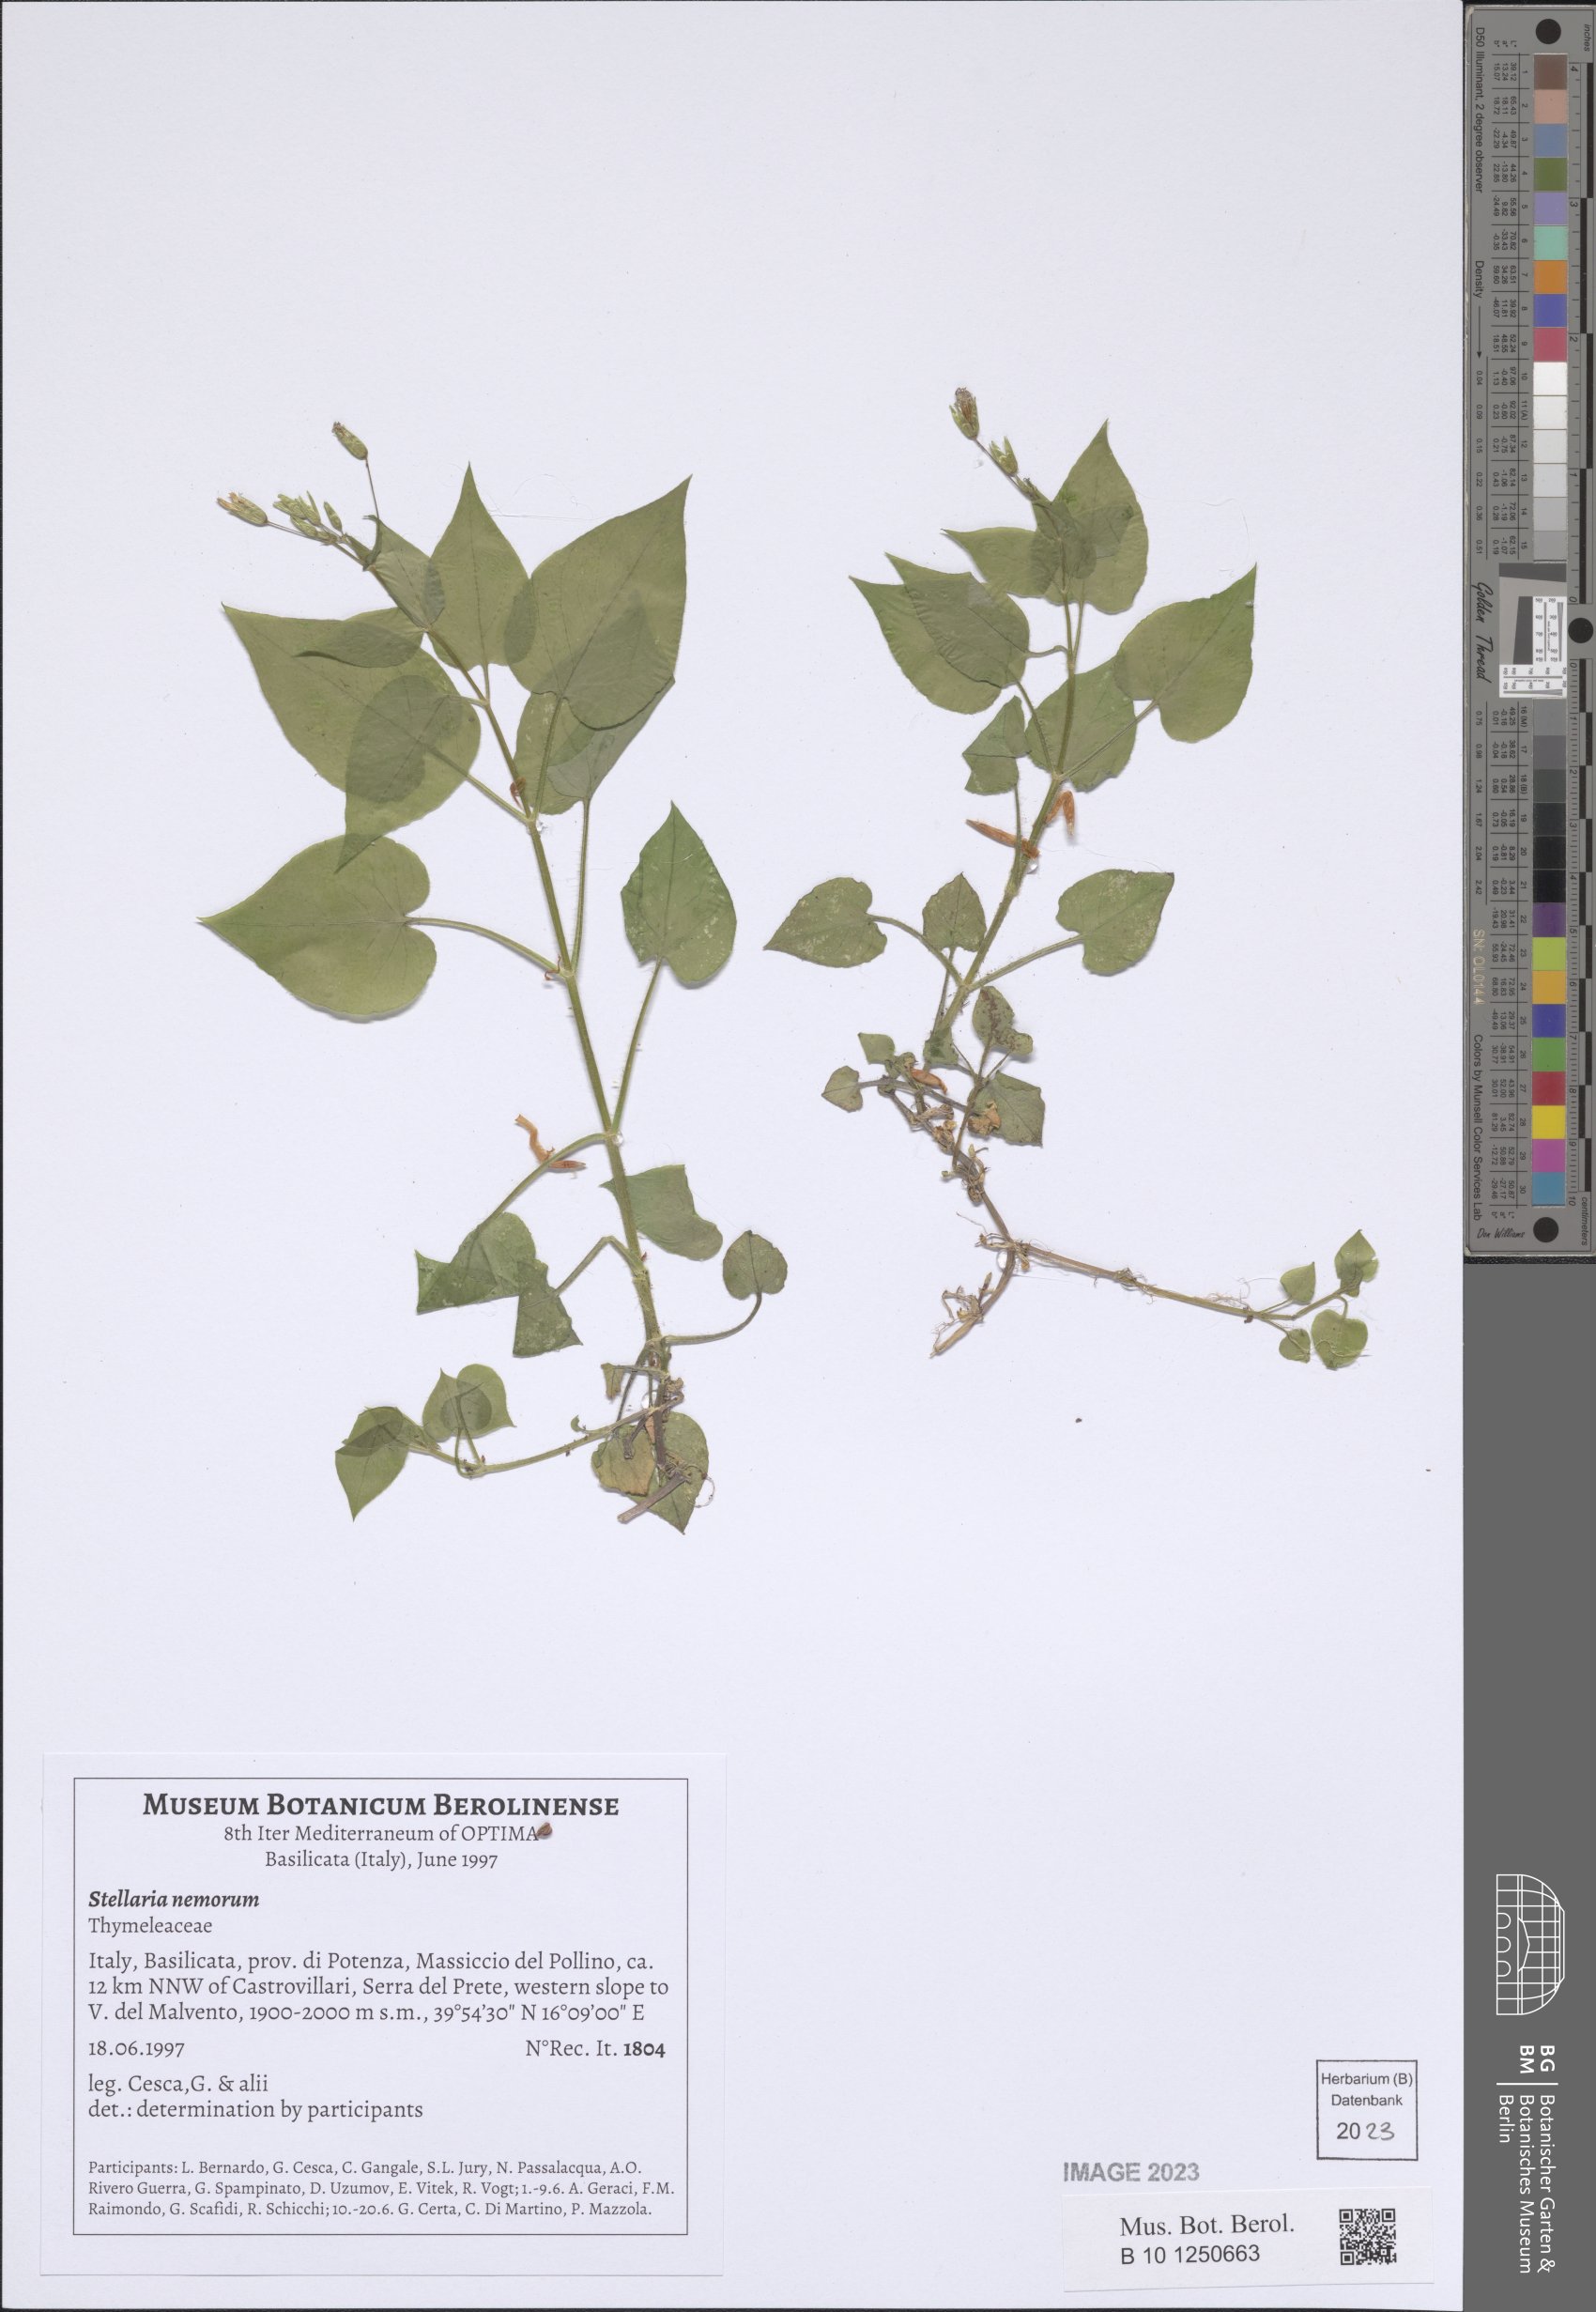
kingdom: Plantae
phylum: Tracheophyta
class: Magnoliopsida
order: Caryophyllales
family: Caryophyllaceae
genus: Stellaria
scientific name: Stellaria nemorum
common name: Wood stitchwort
